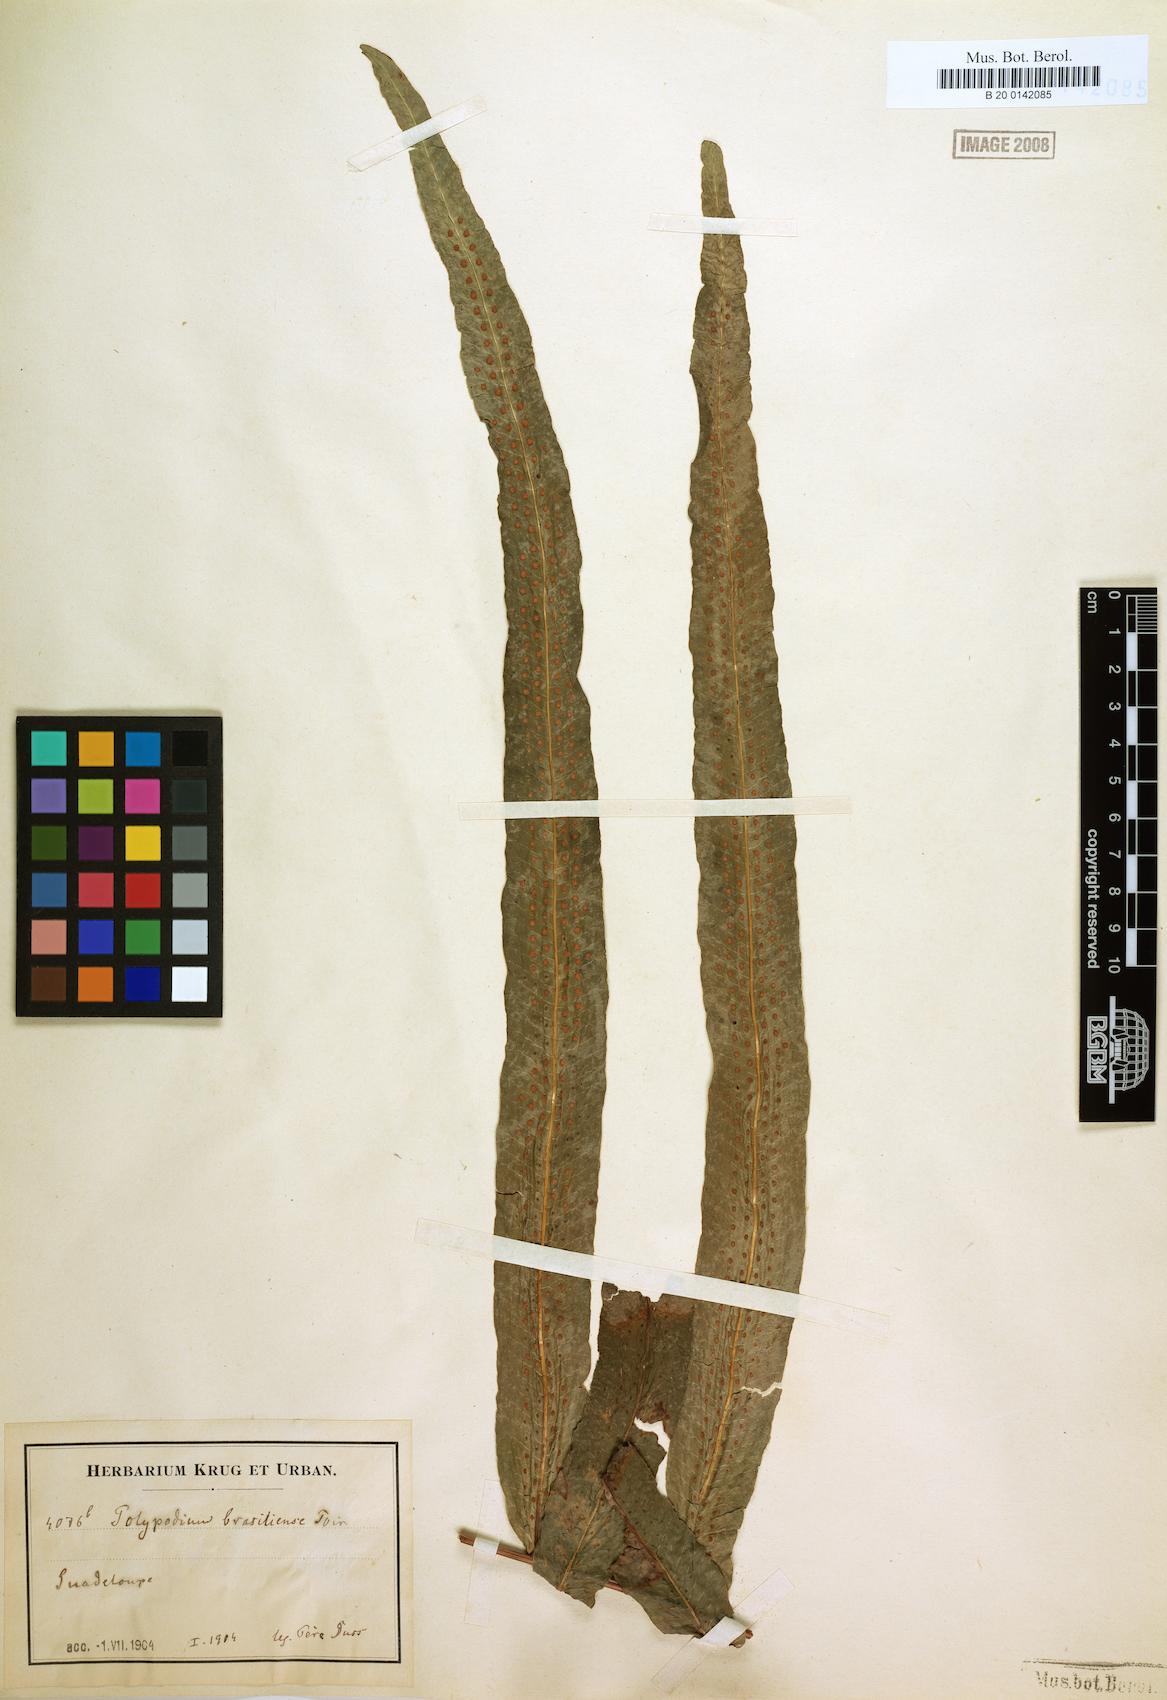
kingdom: Plantae
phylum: Tracheophyta
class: Polypodiopsida
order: Polypodiales
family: Polypodiaceae
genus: Serpocaulon
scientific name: Serpocaulon triseriale
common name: Angle-vein fern
